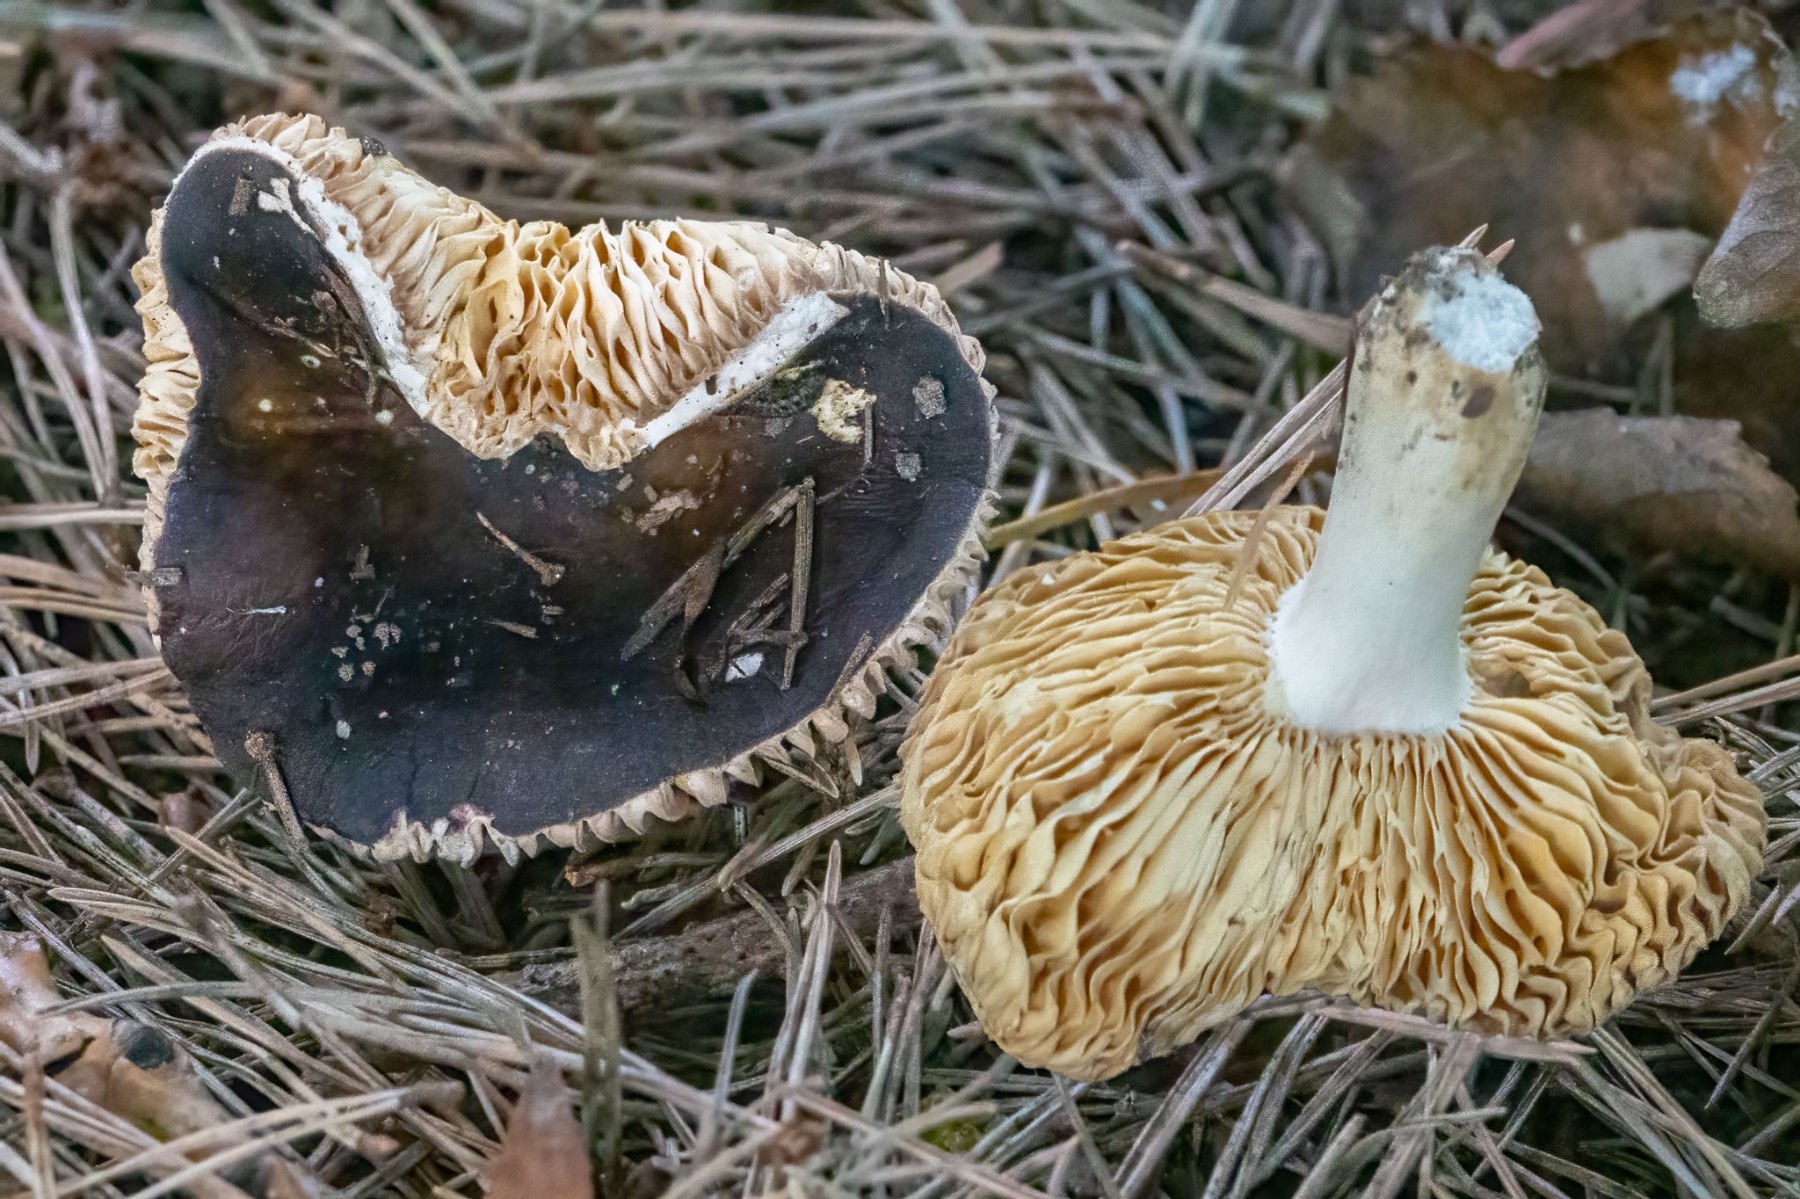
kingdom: Fungi
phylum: Basidiomycota
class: Agaricomycetes
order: Russulales
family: Russulaceae
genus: Russula
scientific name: Russula cessans
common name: fyrre-skørhat
